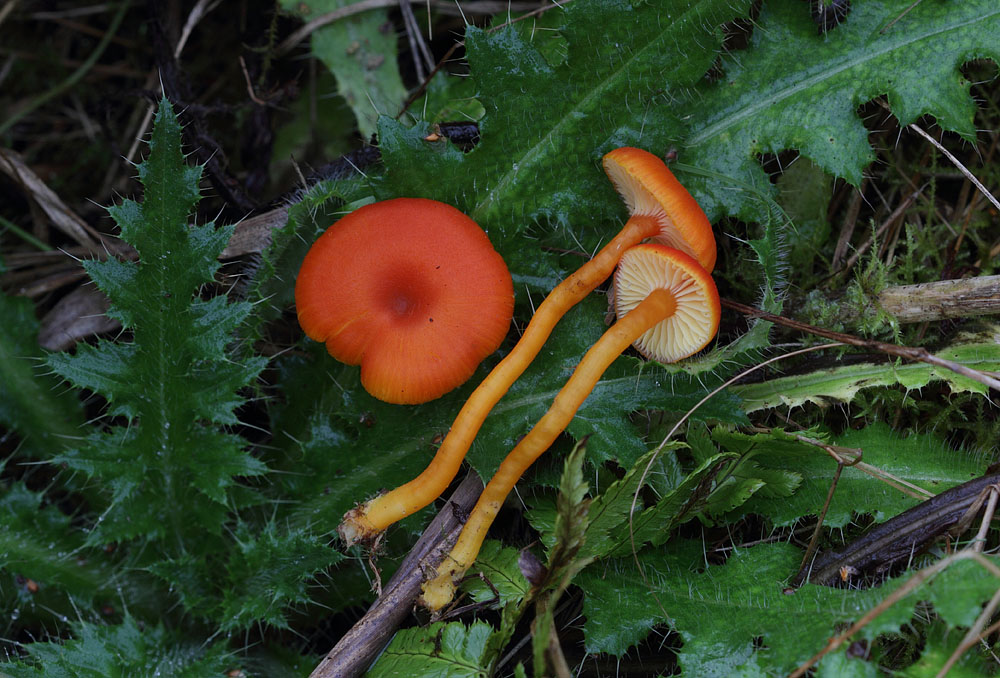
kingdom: Fungi
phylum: Basidiomycota
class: Agaricomycetes
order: Agaricales
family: Hygrophoraceae
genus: Hygrocybe
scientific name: Hygrocybe miniata
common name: mønje-vokshat
